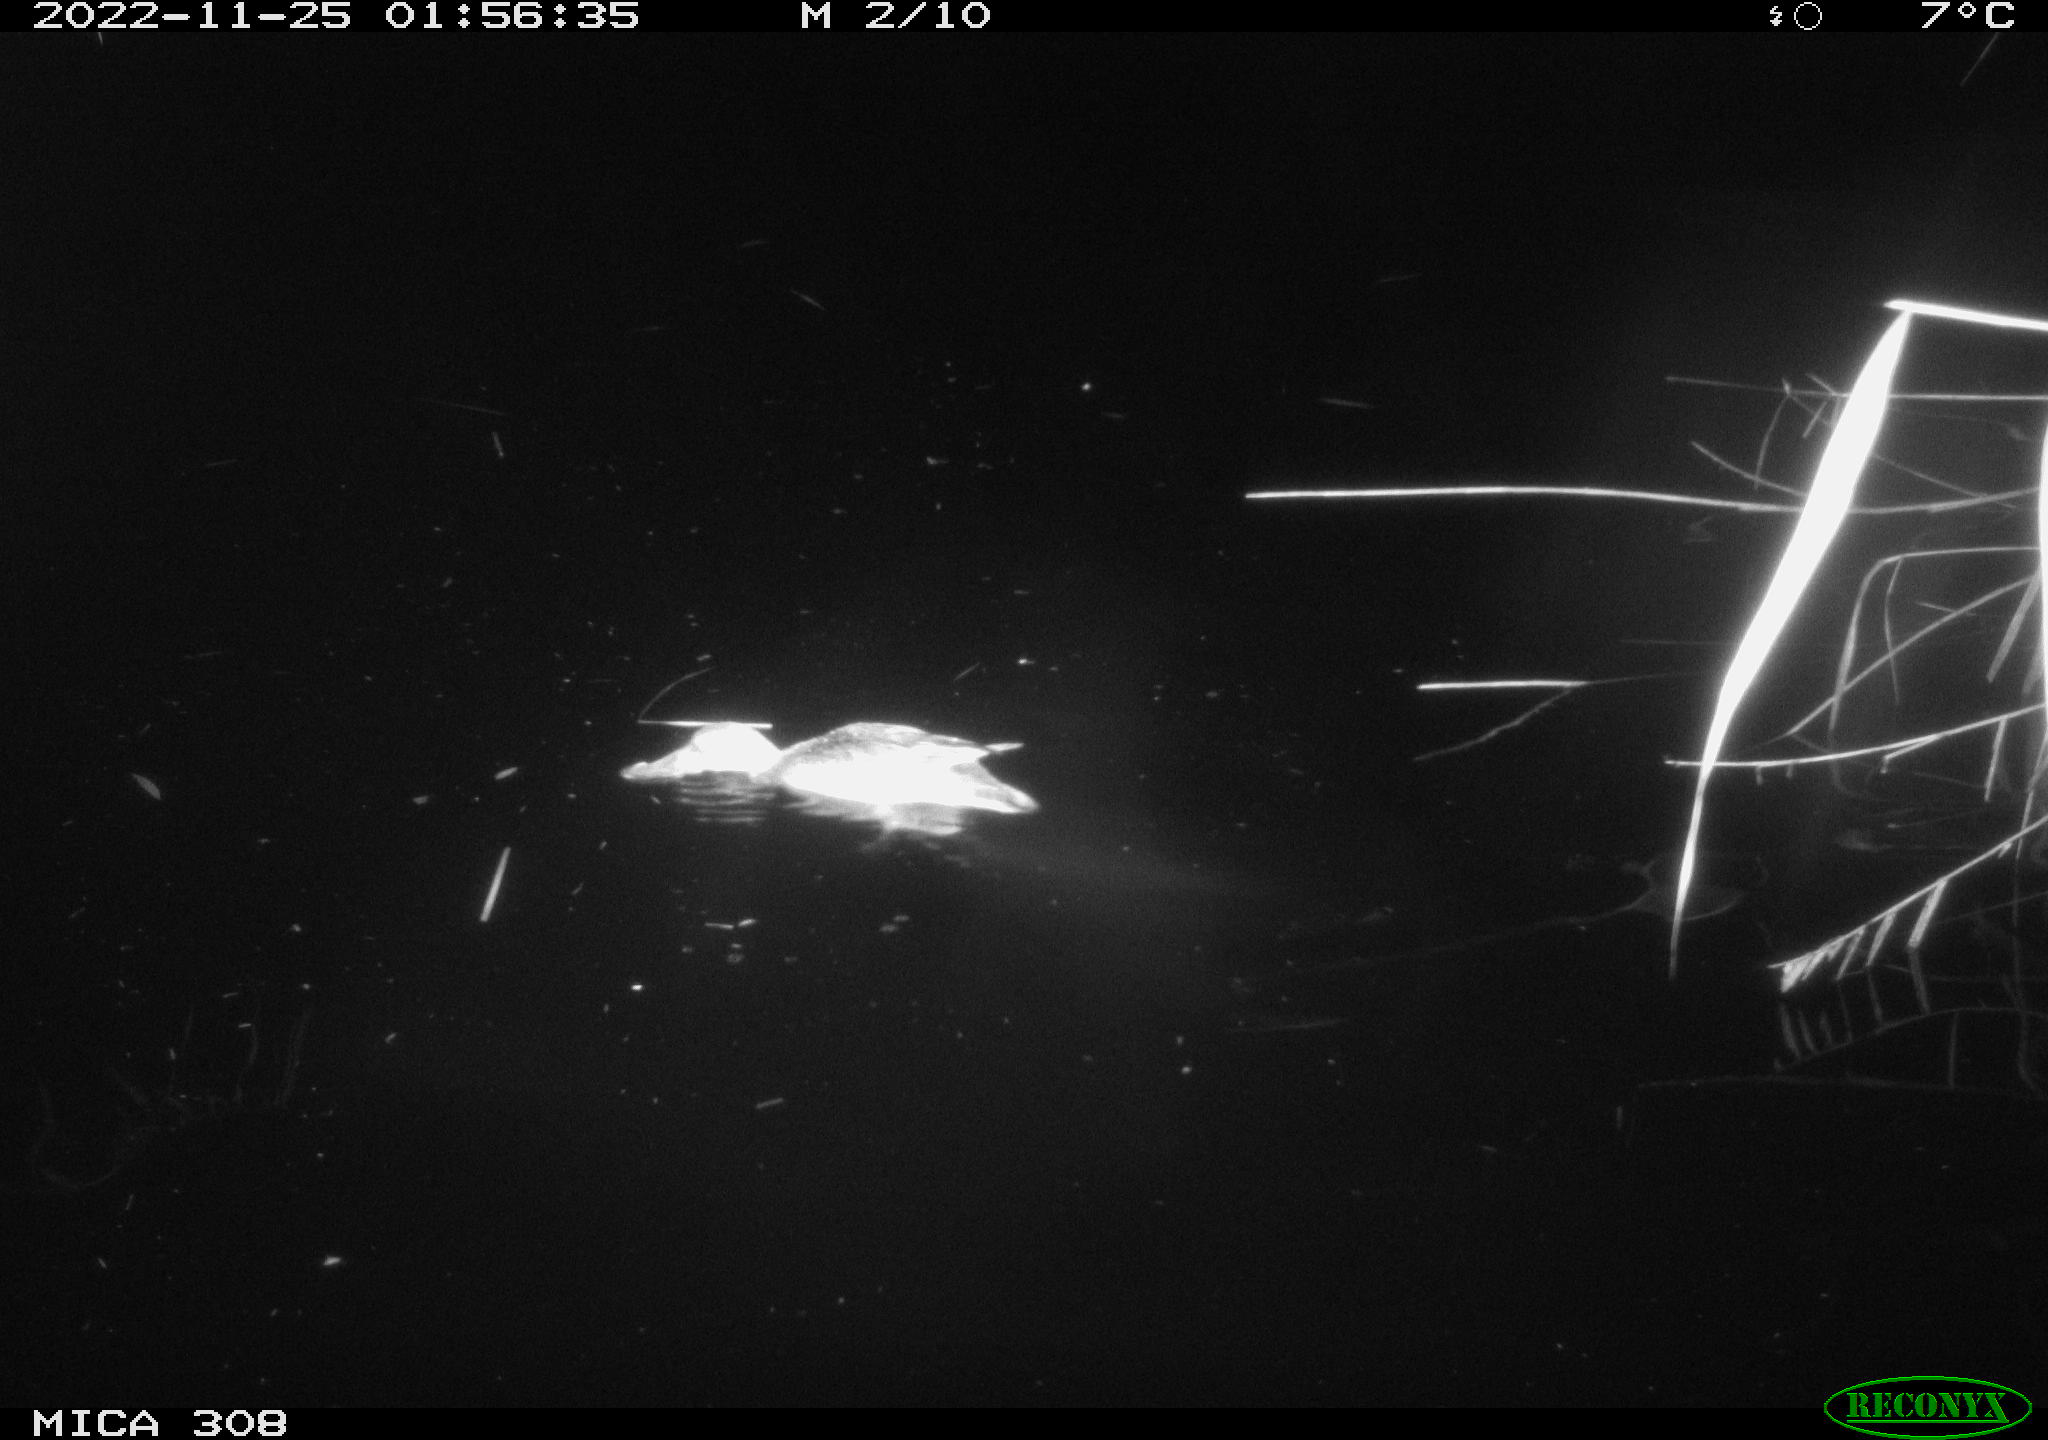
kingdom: Animalia
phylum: Chordata
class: Aves
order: Anseriformes
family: Anatidae
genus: Anas
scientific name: Anas
